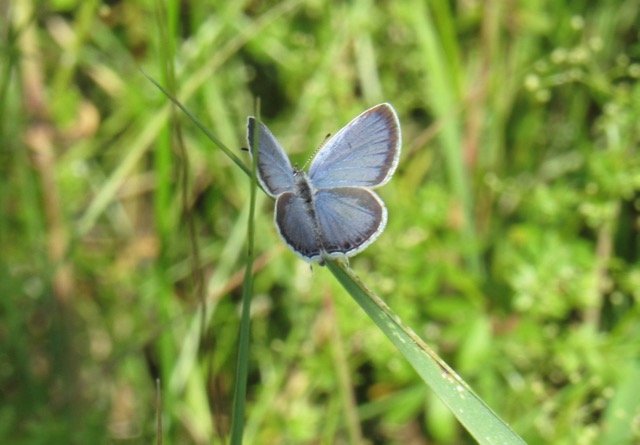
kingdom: Animalia
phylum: Arthropoda
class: Insecta
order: Lepidoptera
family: Lycaenidae
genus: Elkalyce
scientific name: Elkalyce comyntas
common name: Eastern Tailed-Blue
